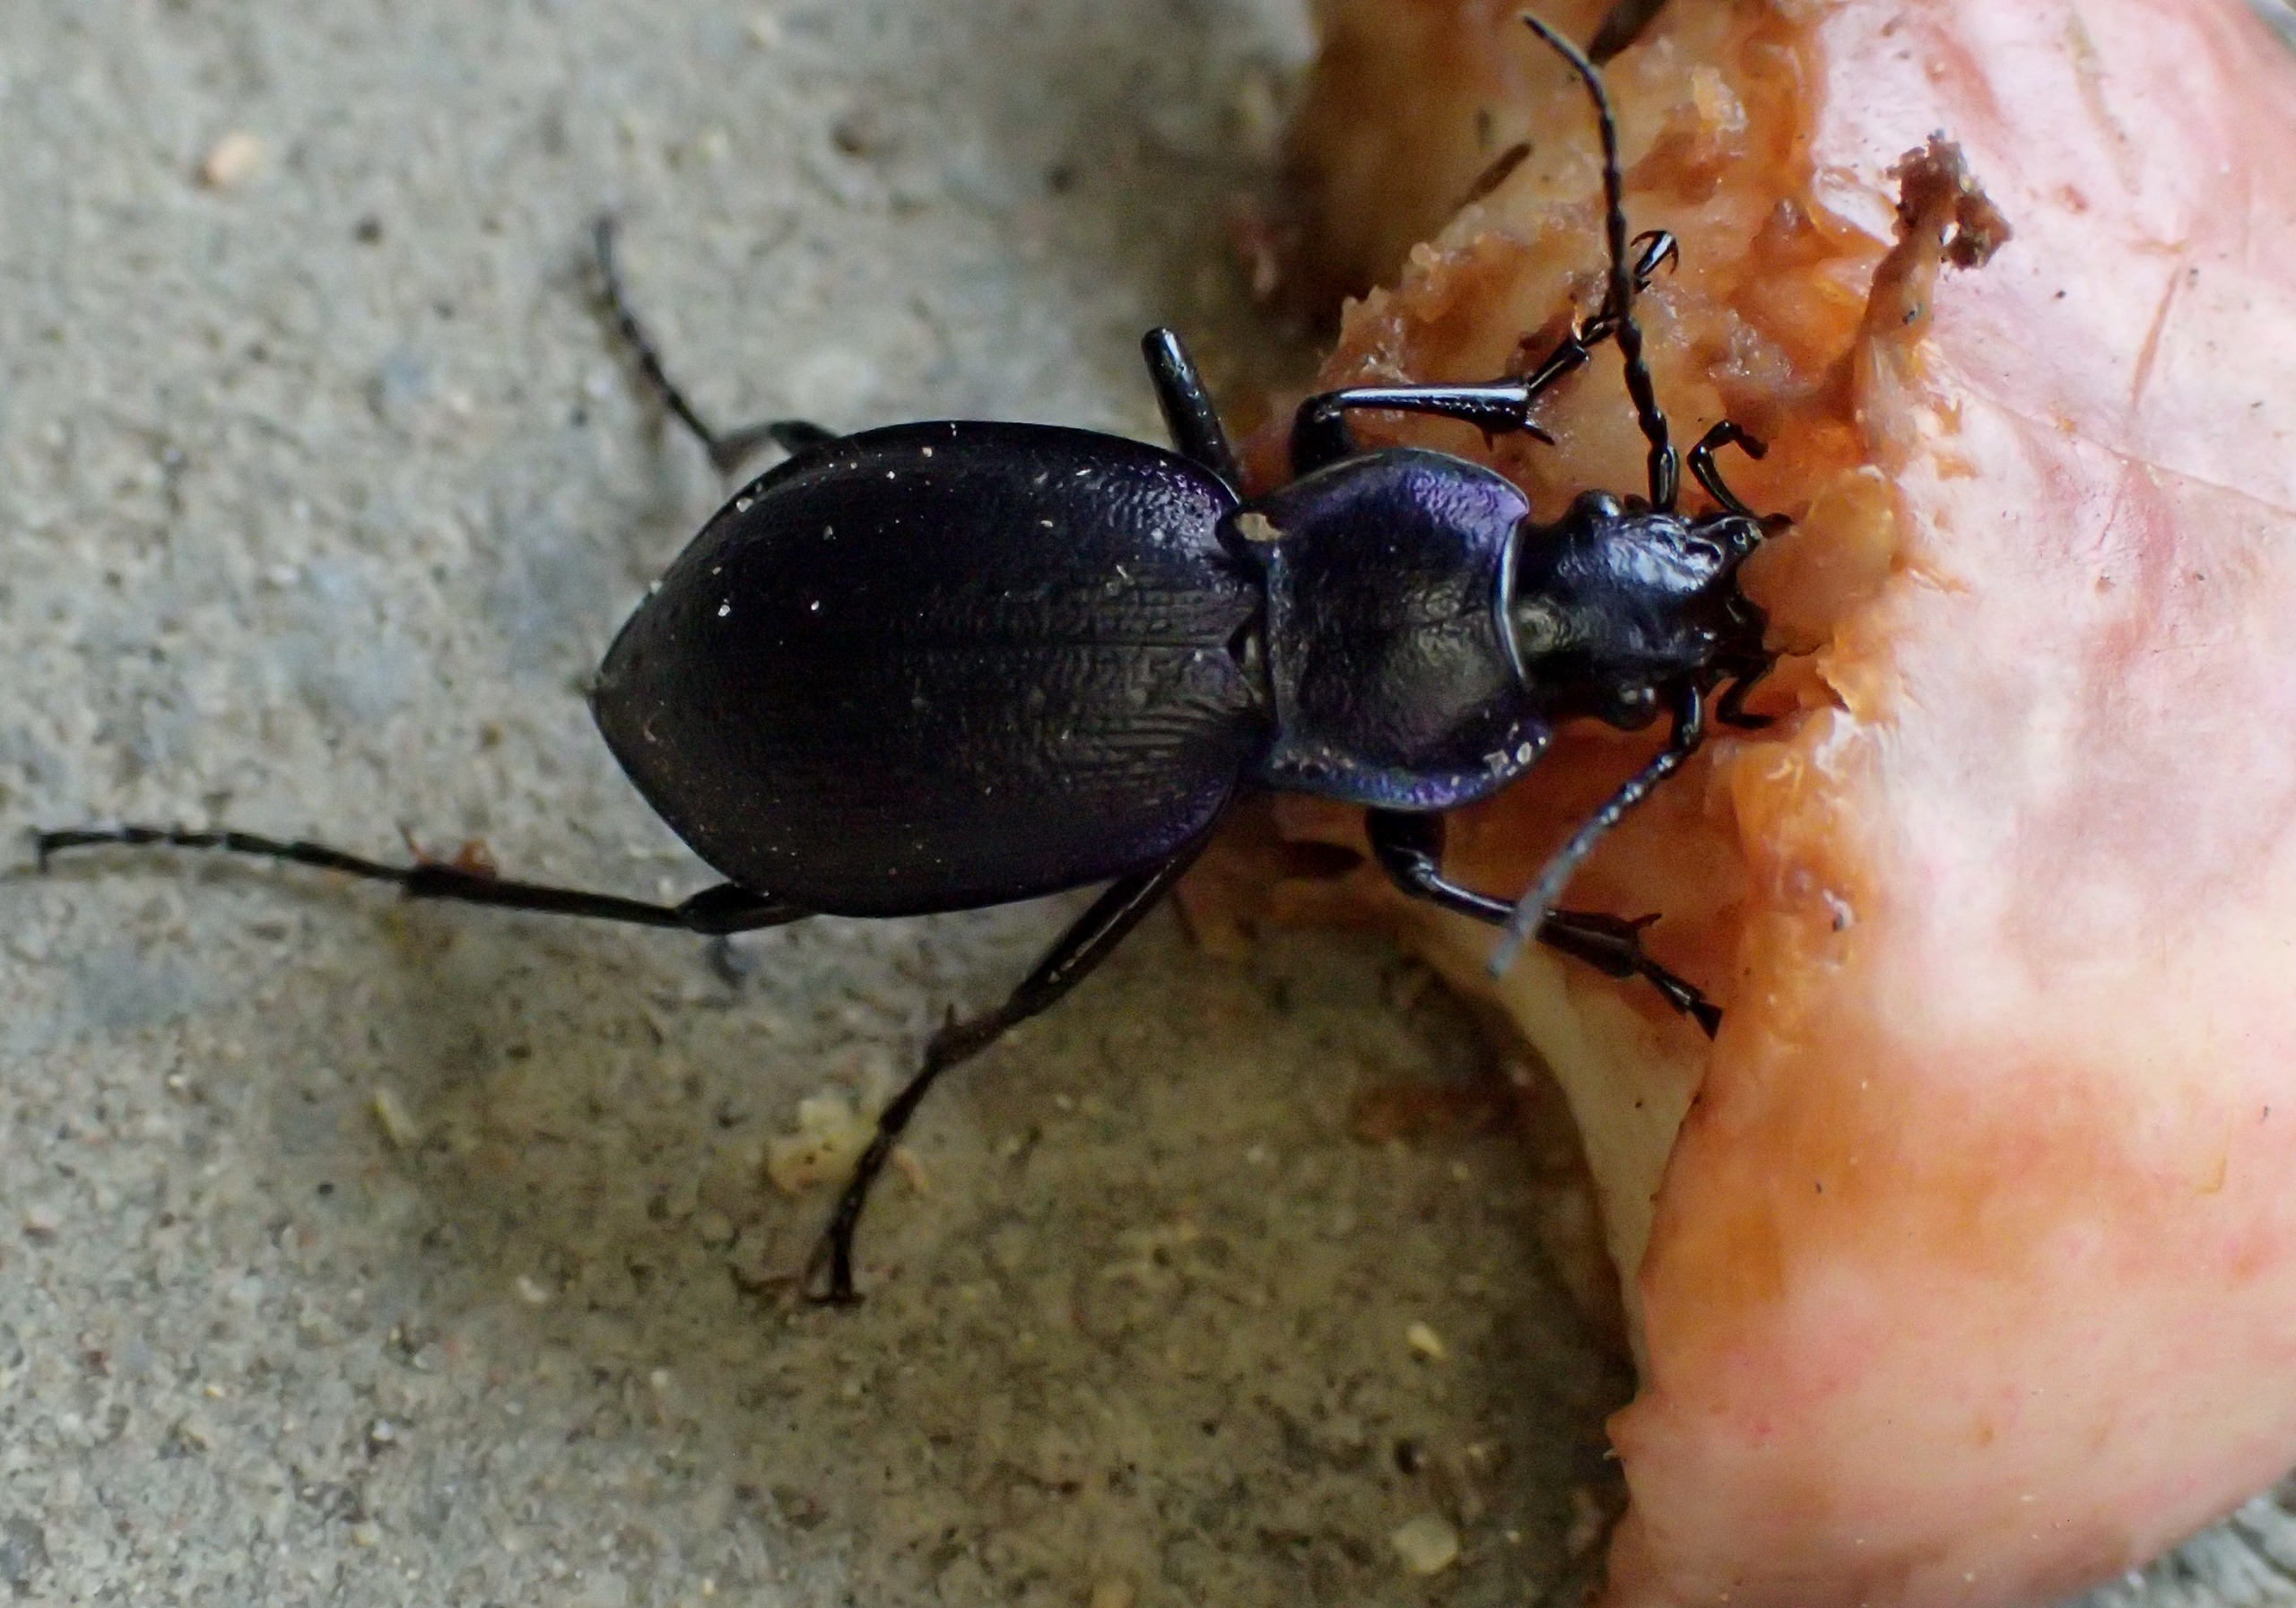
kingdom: Animalia
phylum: Arthropoda
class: Insecta
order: Coleoptera
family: Carabidae
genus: Carabus
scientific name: Carabus problematicus
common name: Jysk løber
